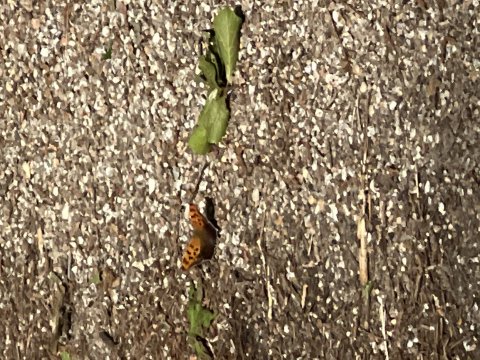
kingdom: Animalia
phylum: Arthropoda
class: Insecta
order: Lepidoptera
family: Nymphalidae
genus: Polygonia
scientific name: Polygonia interrogationis
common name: Question Mark
